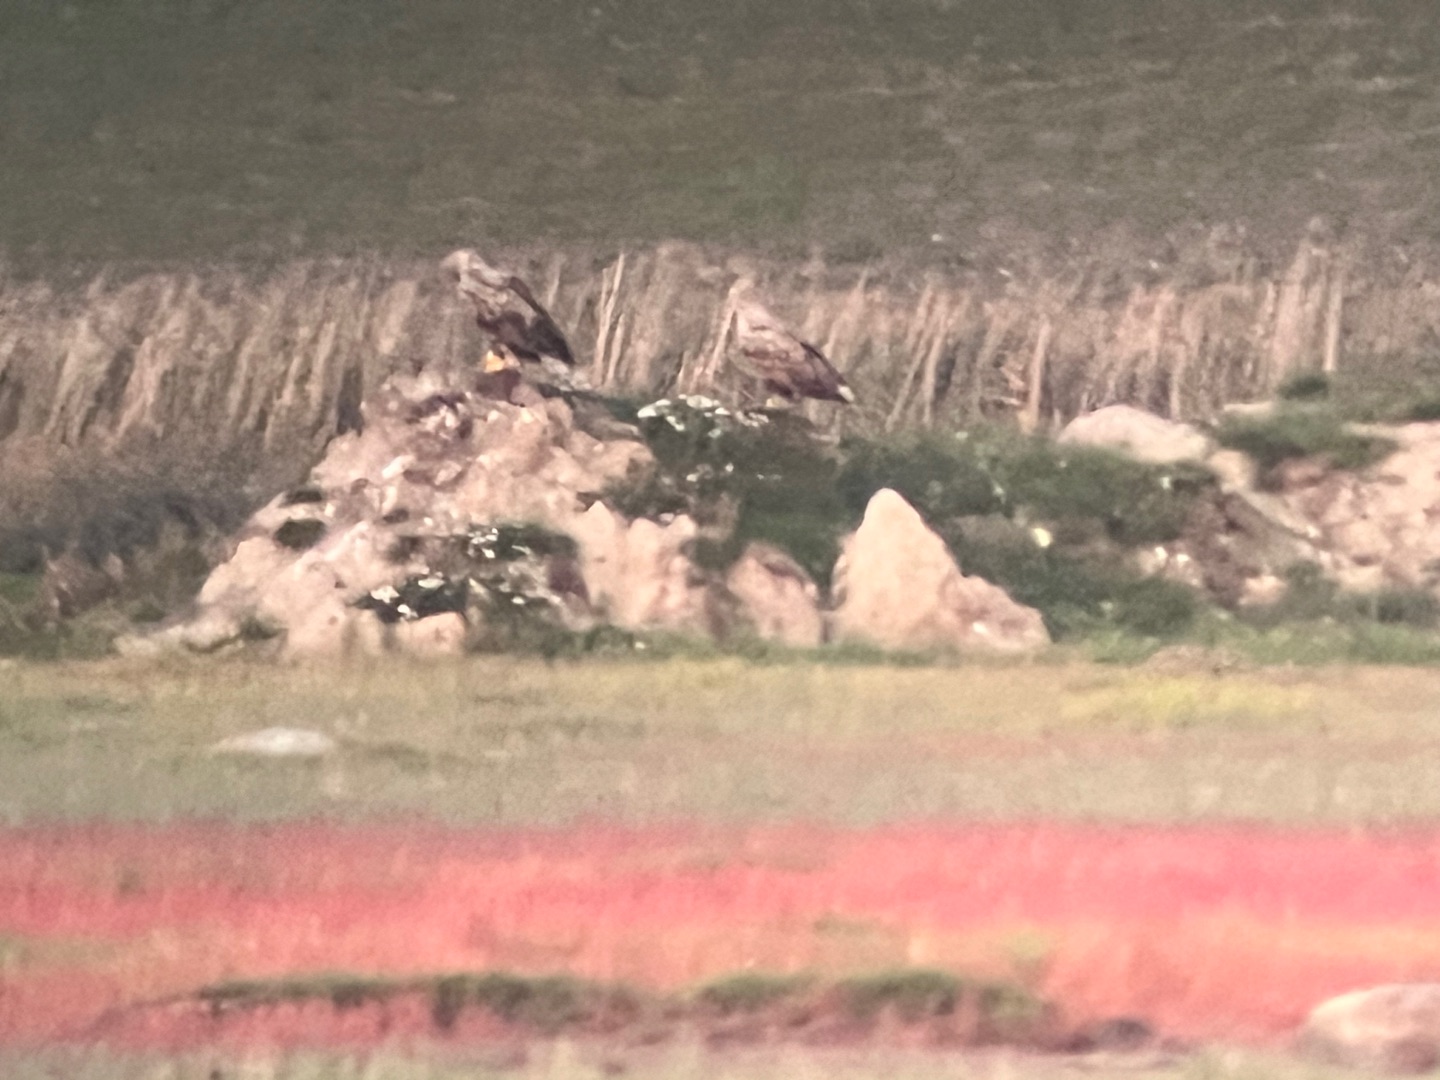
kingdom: Animalia
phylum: Chordata
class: Aves
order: Accipitriformes
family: Accipitridae
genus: Haliaeetus
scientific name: Haliaeetus albicilla
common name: Havørn
